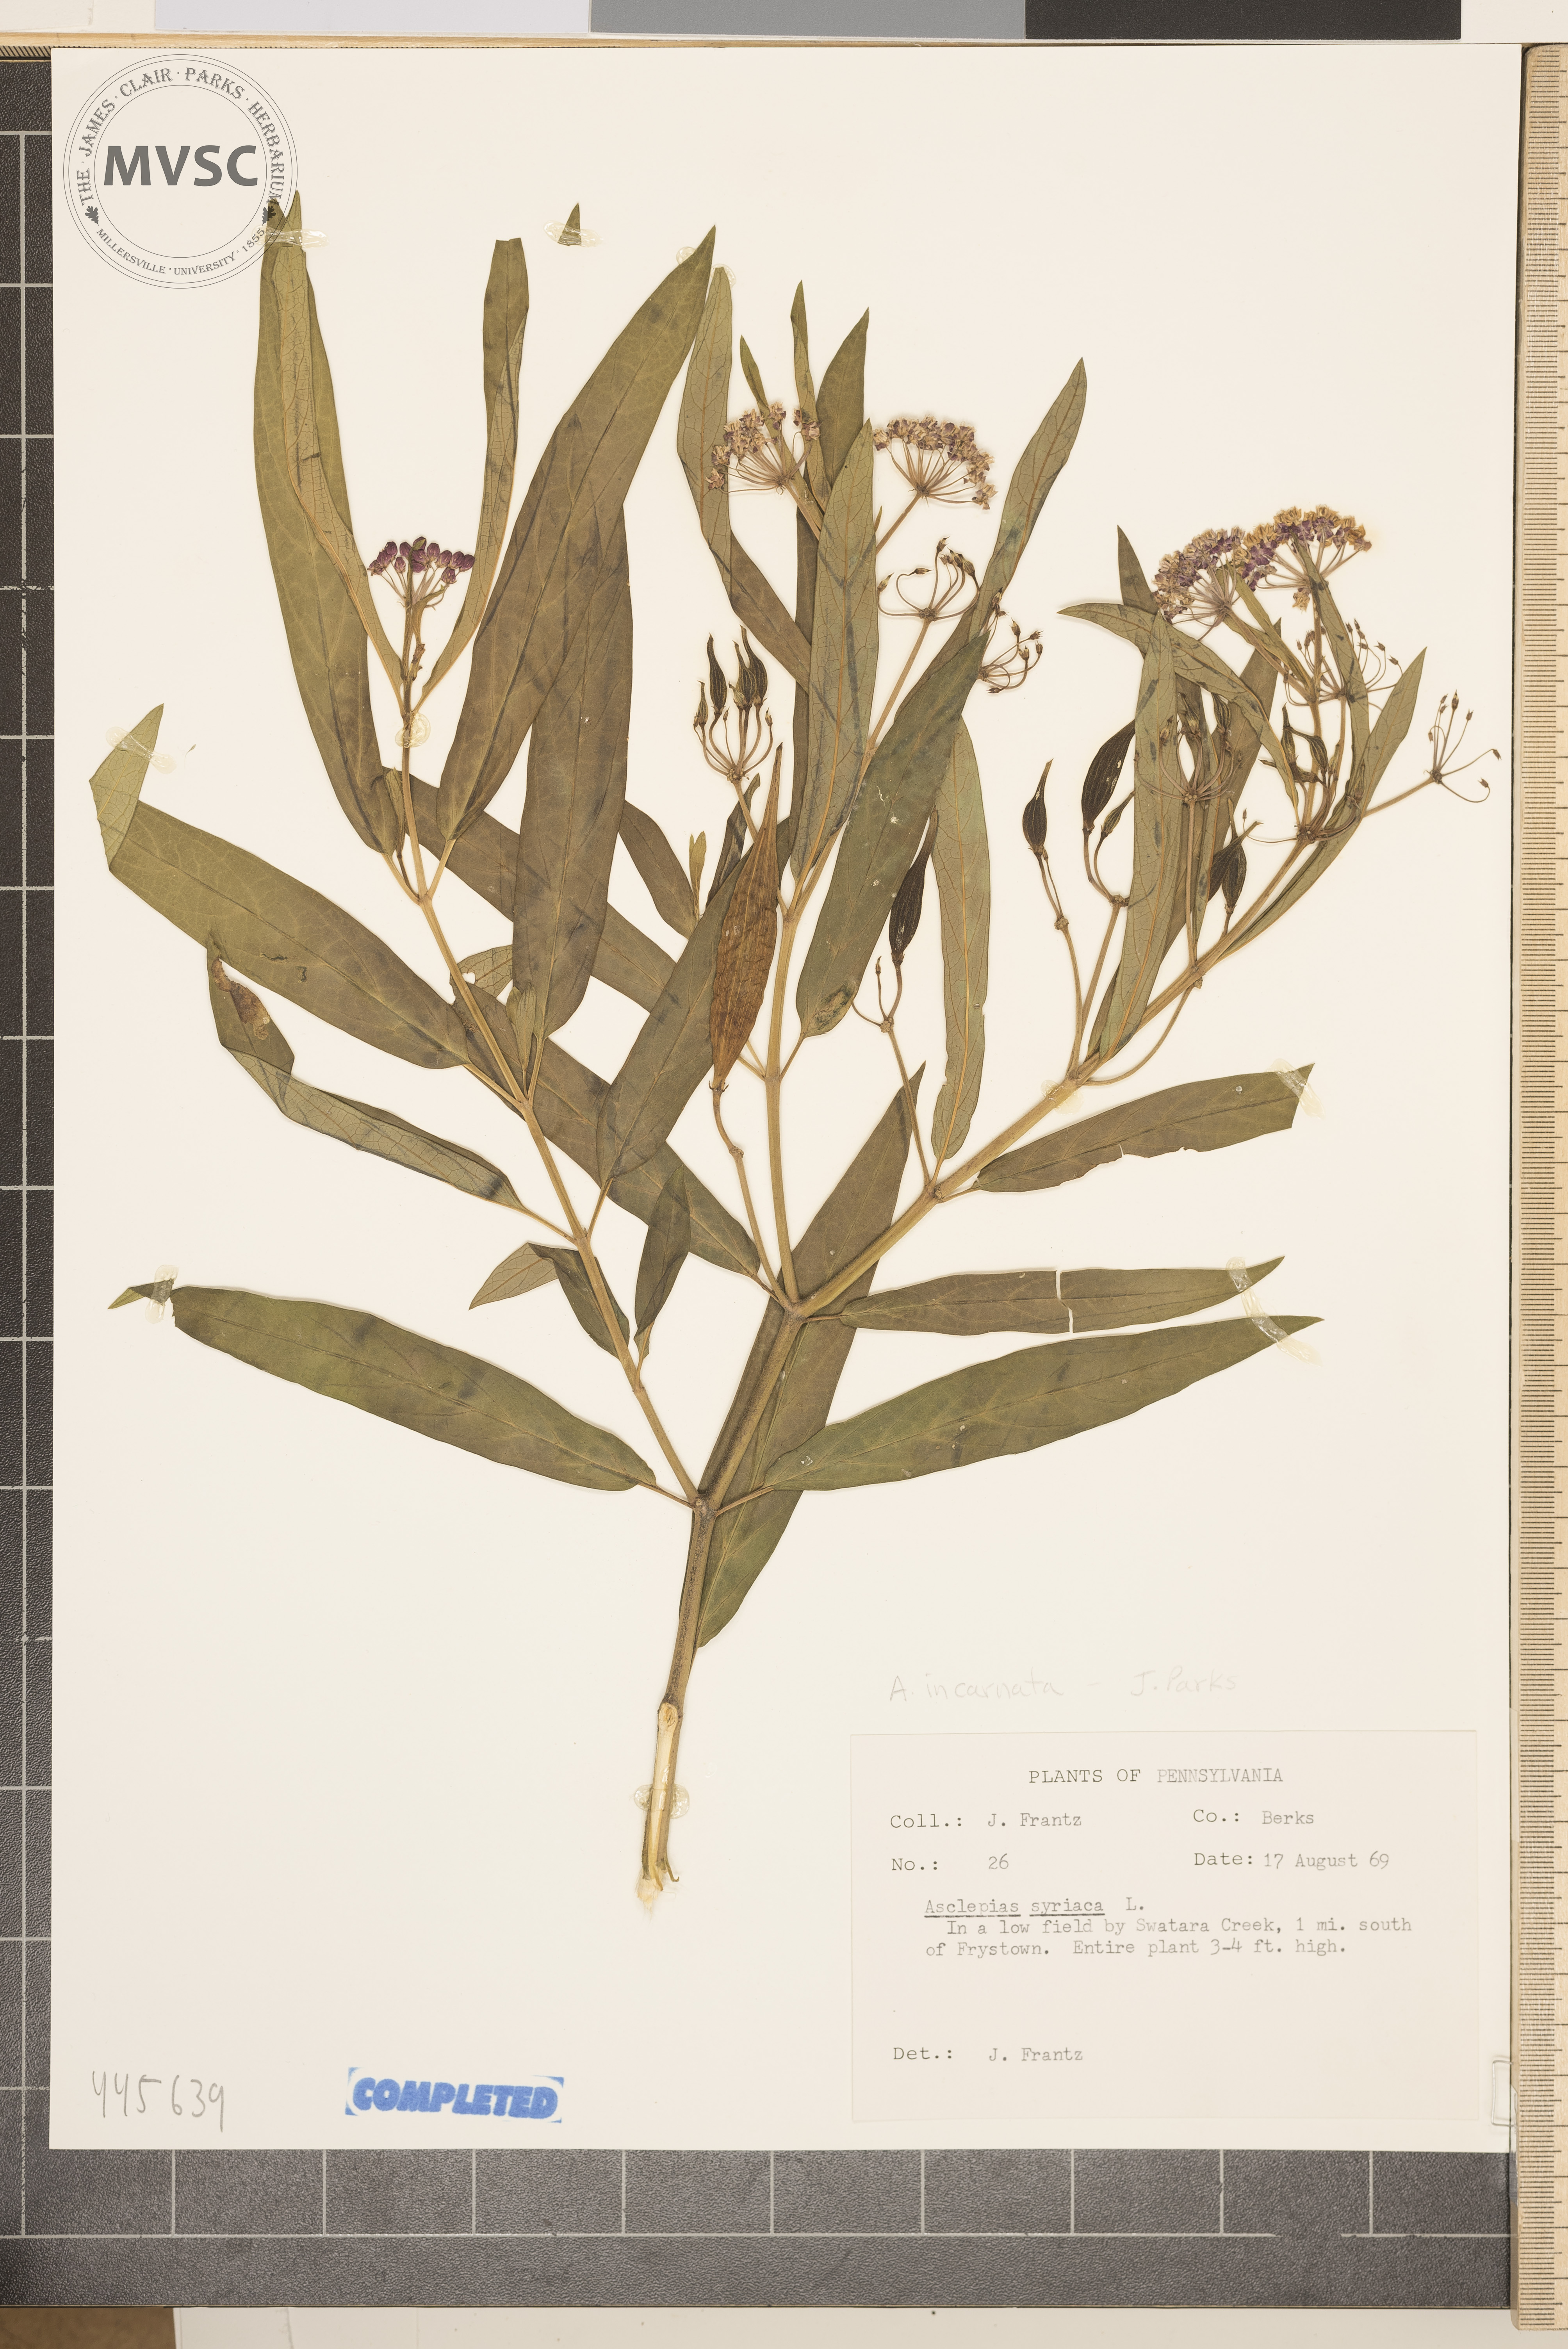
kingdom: Plantae
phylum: Tracheophyta
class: Magnoliopsida
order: Gentianales
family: Apocynaceae
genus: Asclepias
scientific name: Asclepias incarnata
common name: Swamp milkweed
